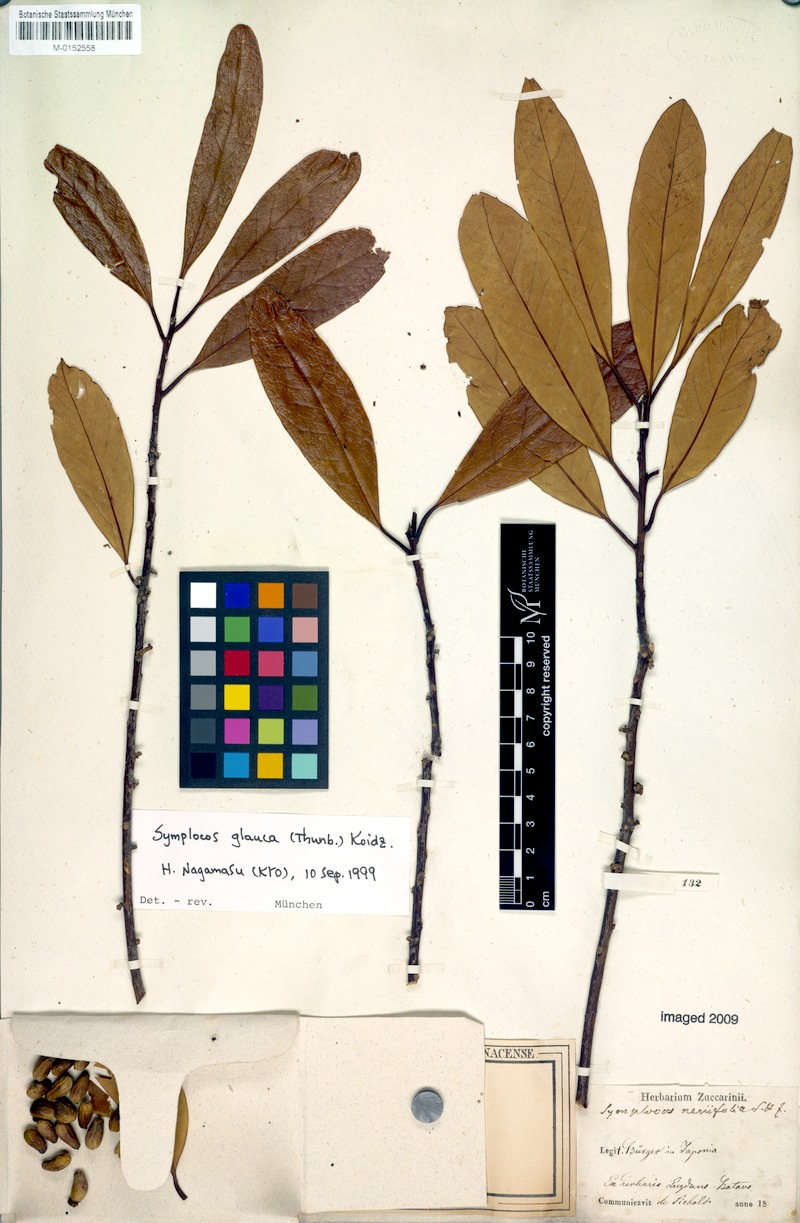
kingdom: Plantae
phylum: Tracheophyta
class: Magnoliopsida
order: Ericales
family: Symplocaceae
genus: Symplocos
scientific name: Symplocos glauca
